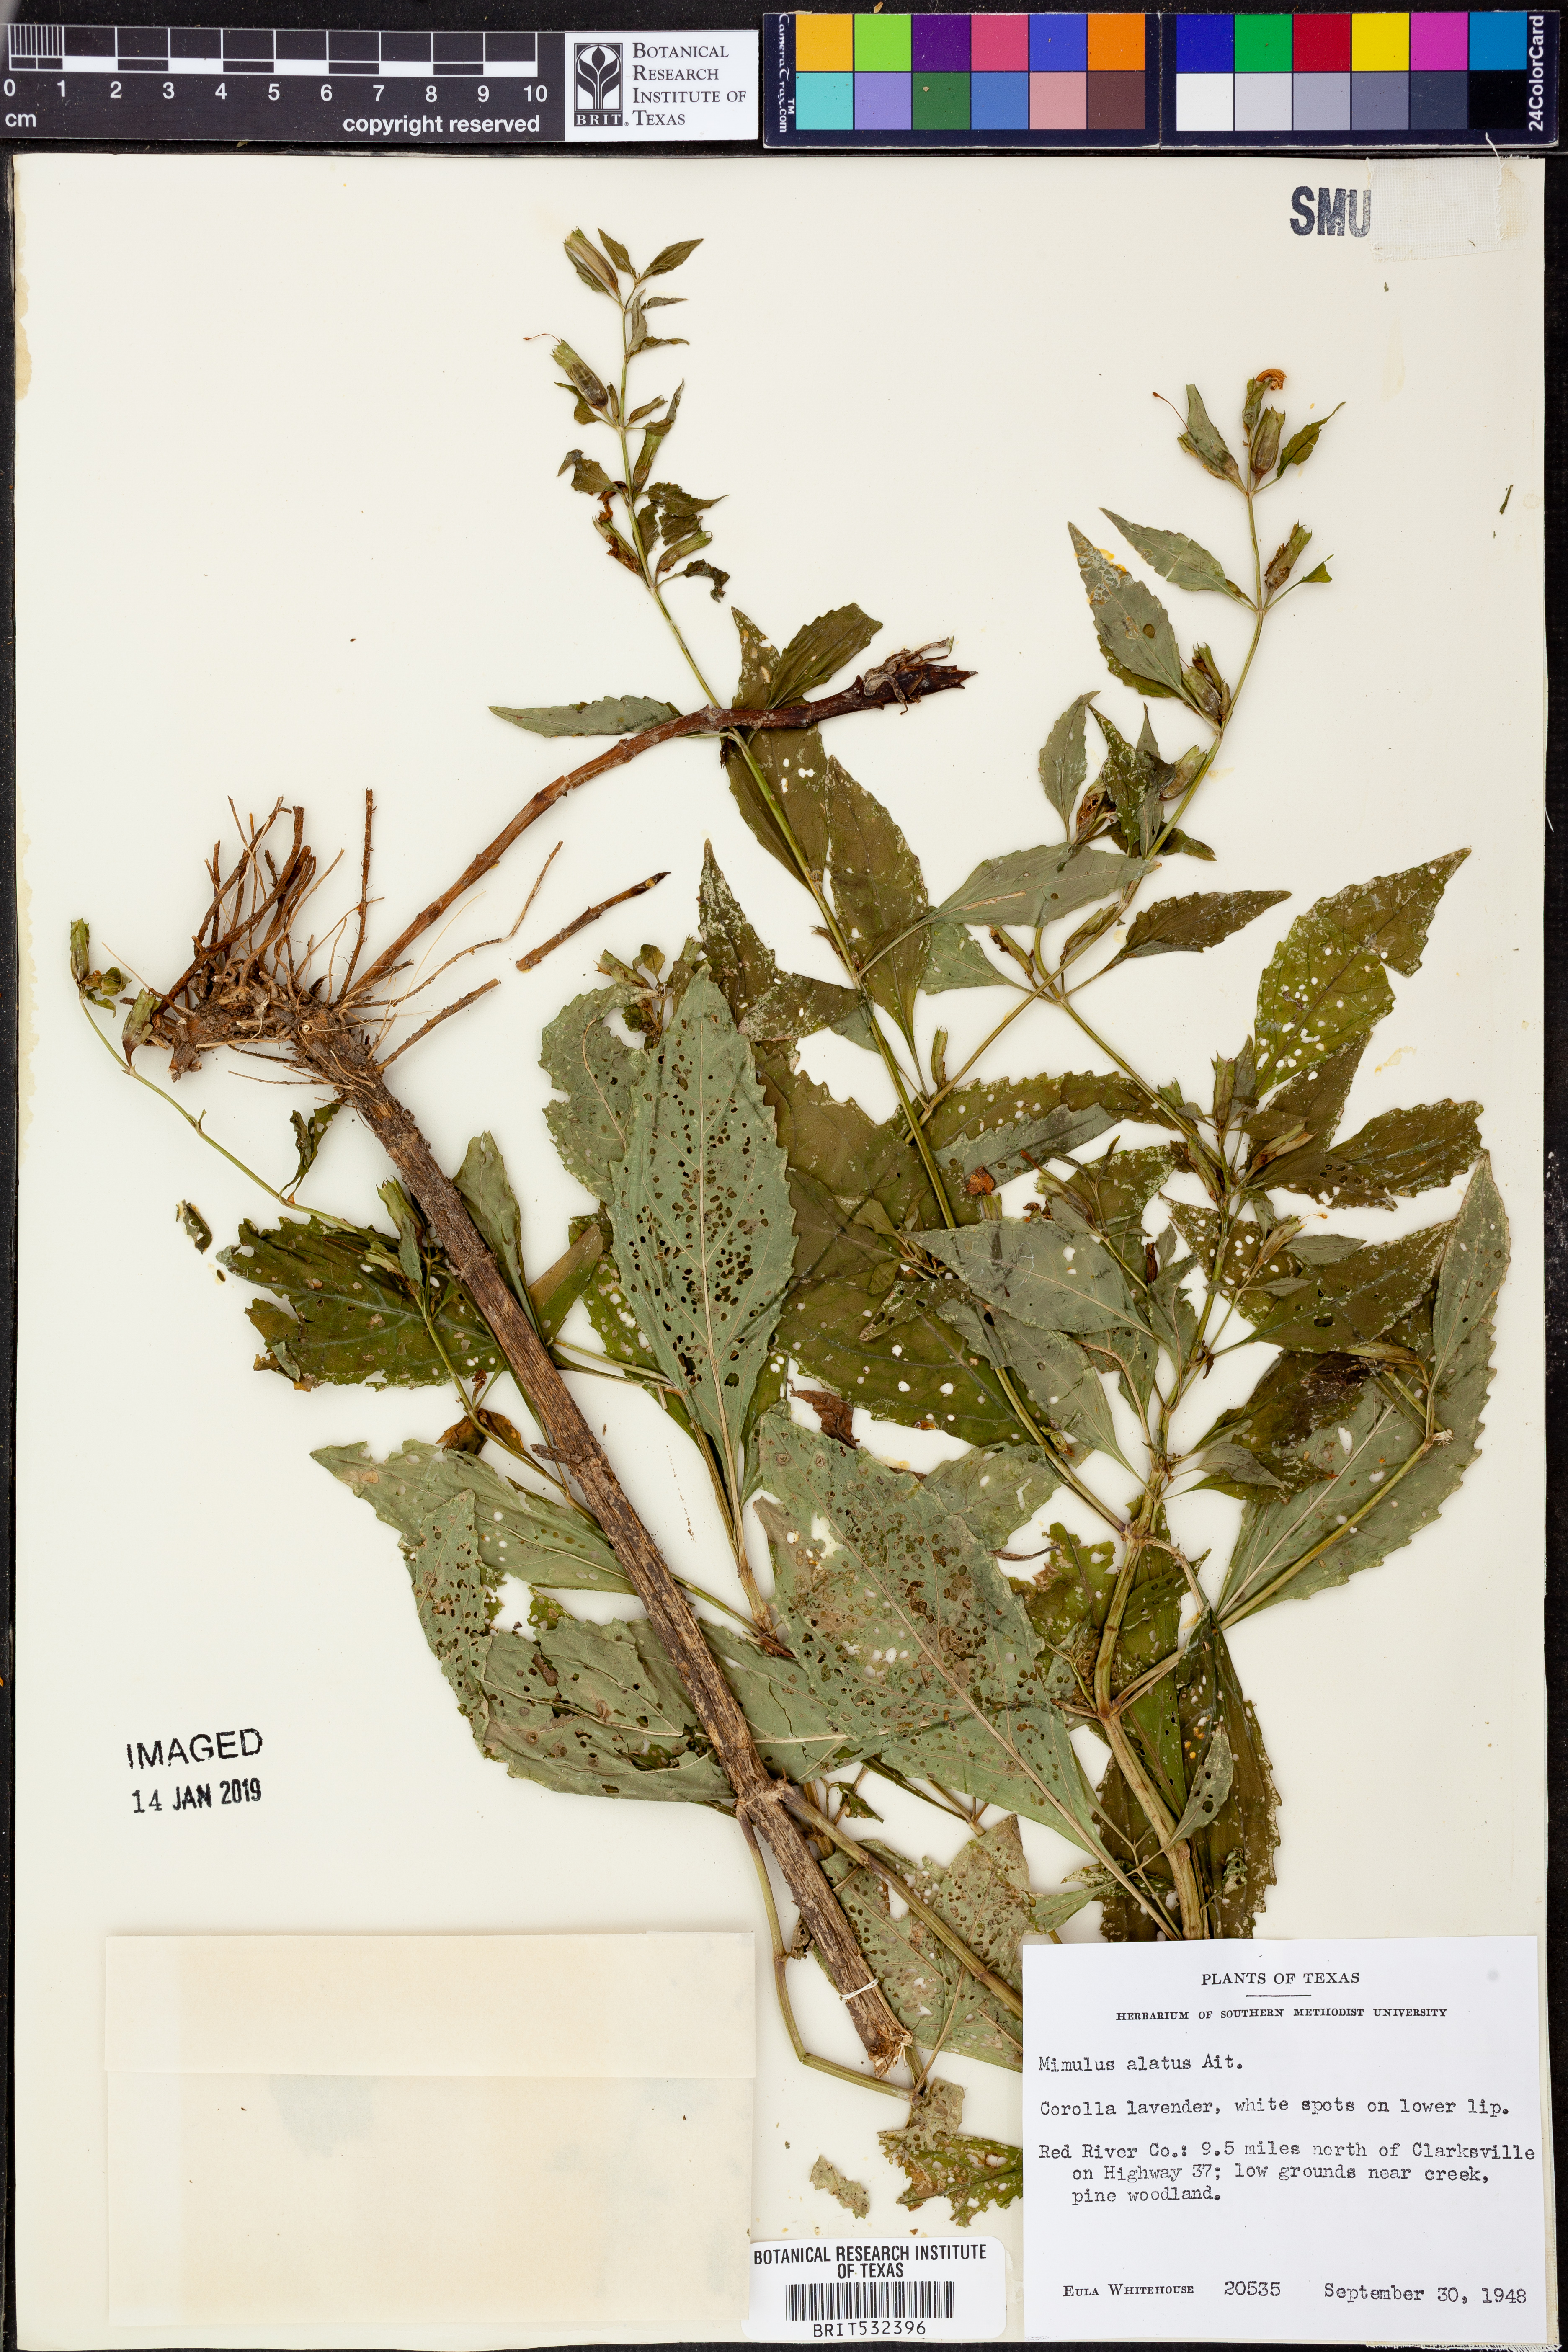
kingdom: Plantae
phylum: Tracheophyta
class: Magnoliopsida
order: Lamiales
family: Phrymaceae
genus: Mimulus
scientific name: Mimulus alatus
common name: Sharp-wing monkey-flower
